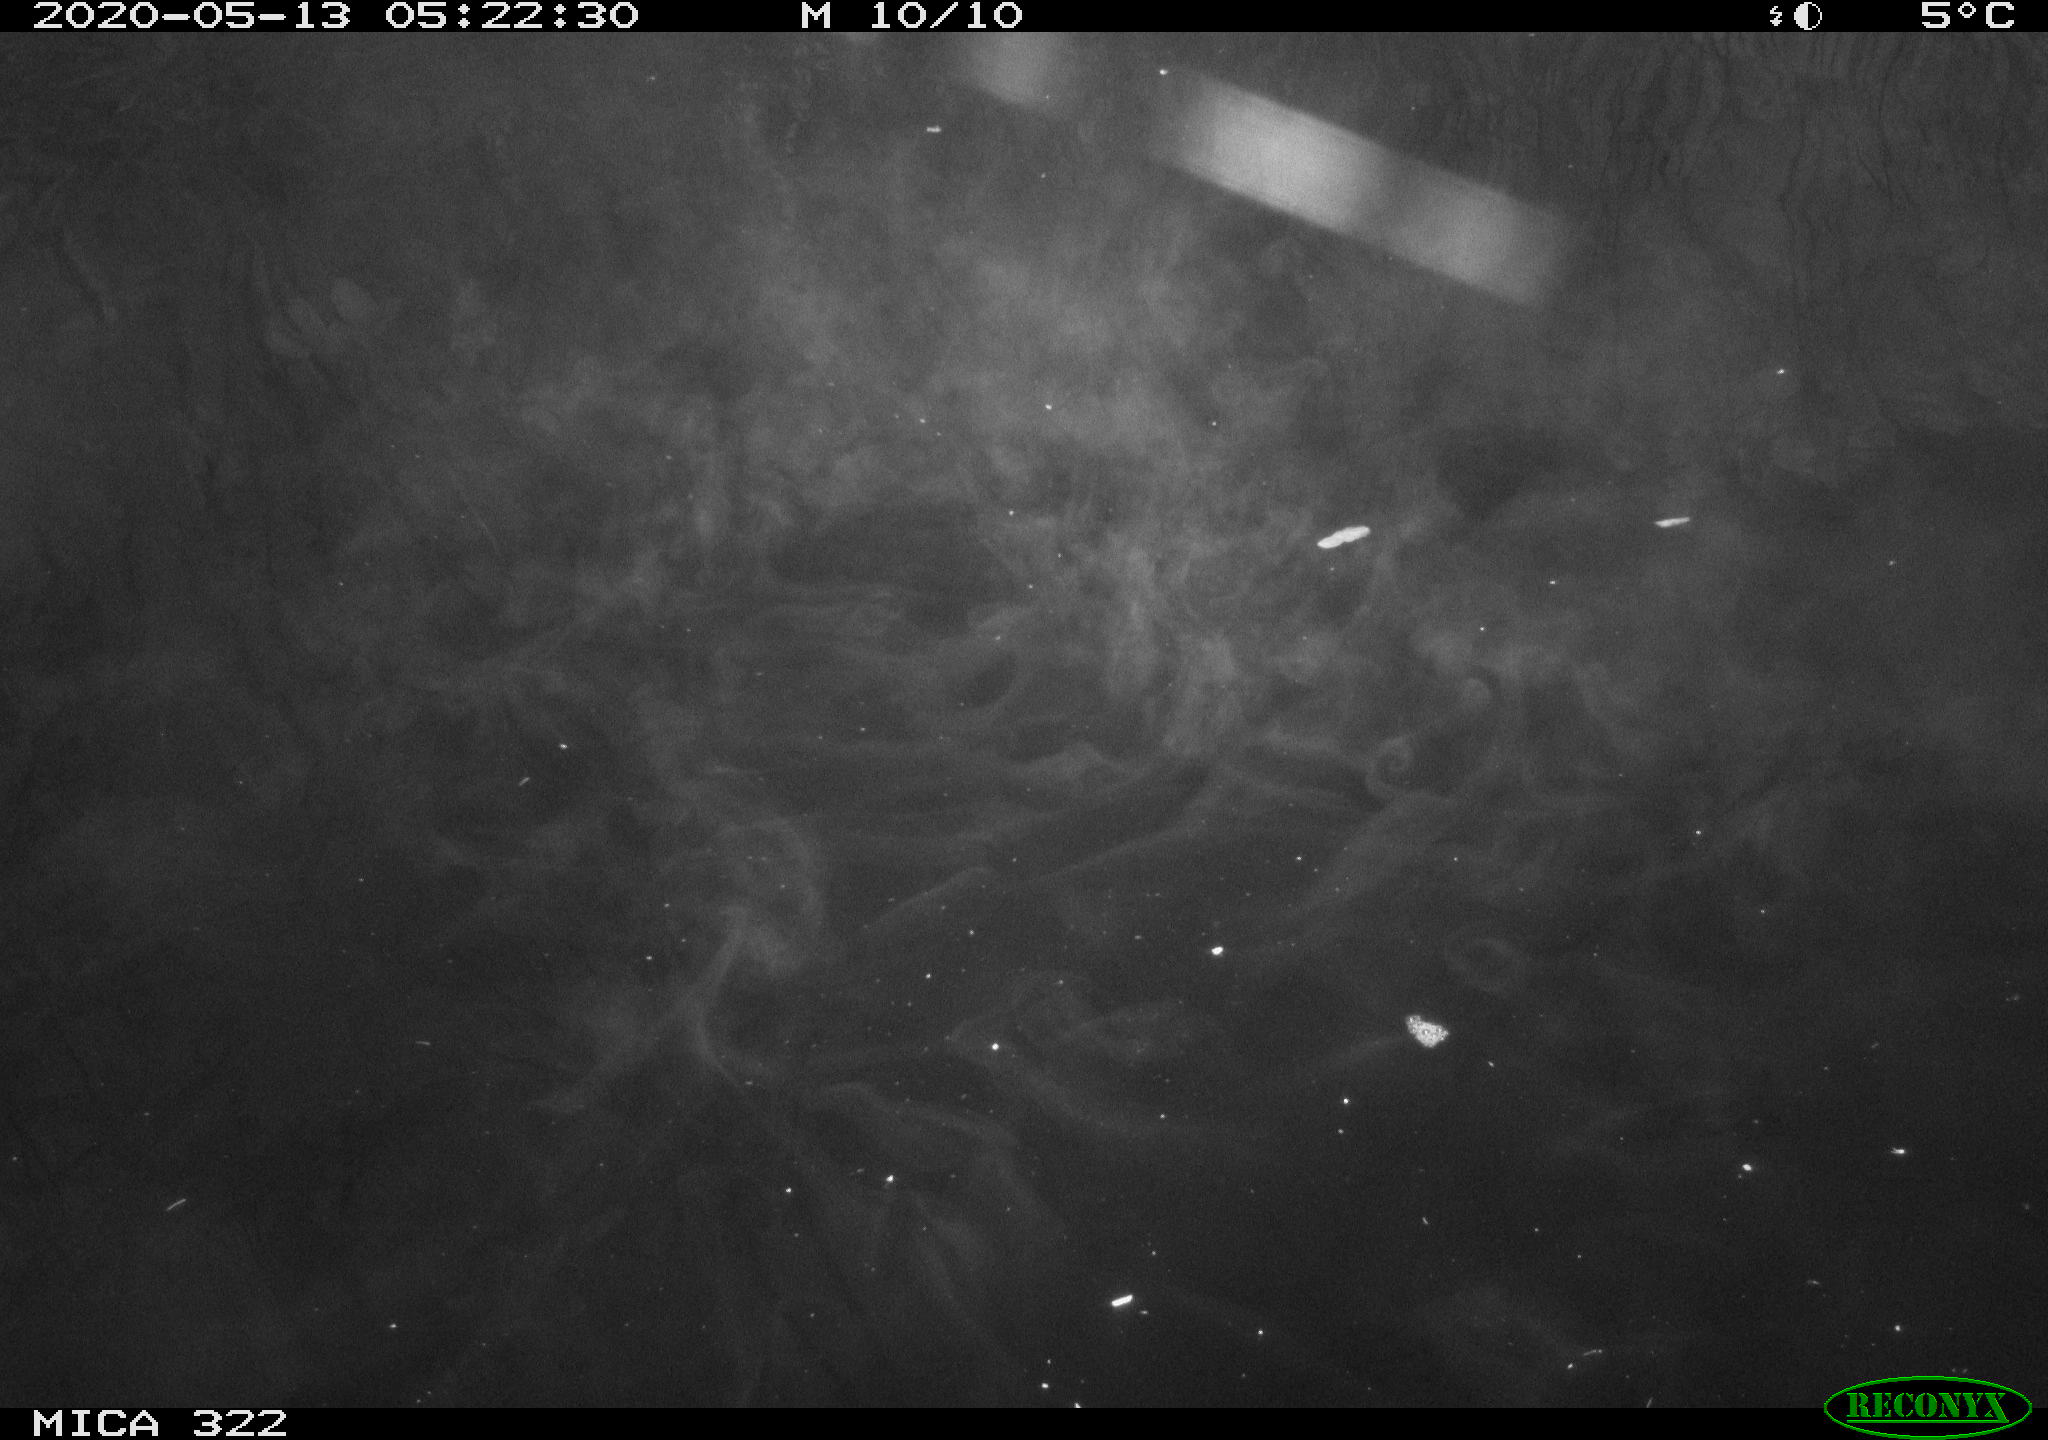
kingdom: Animalia
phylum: Chordata
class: Aves
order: Anseriformes
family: Anatidae
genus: Mareca
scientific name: Mareca strepera
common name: Gadwall
